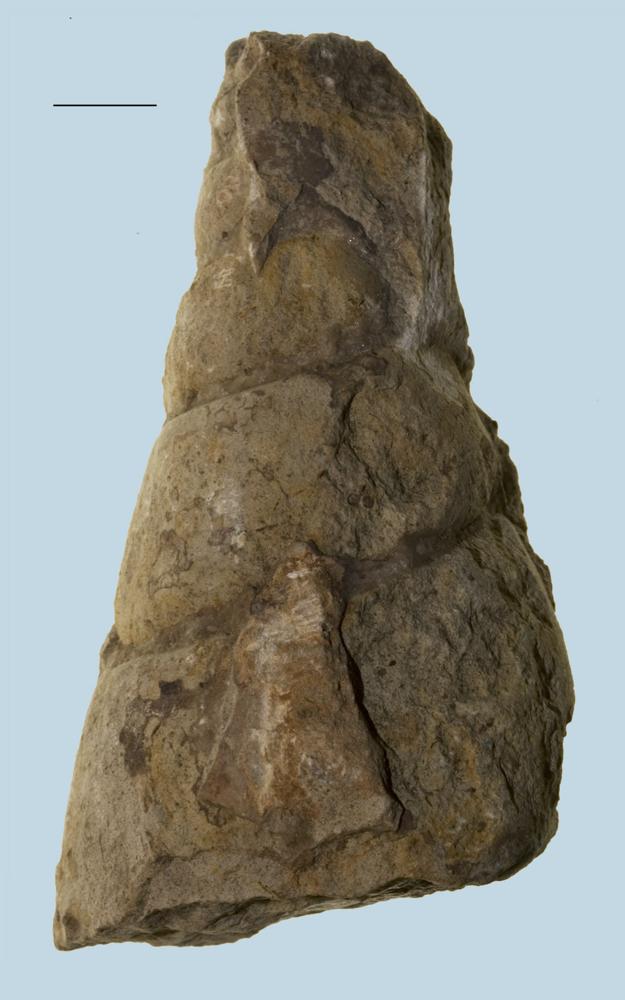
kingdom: Animalia
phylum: Mollusca
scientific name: Mollusca
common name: Mollusca
